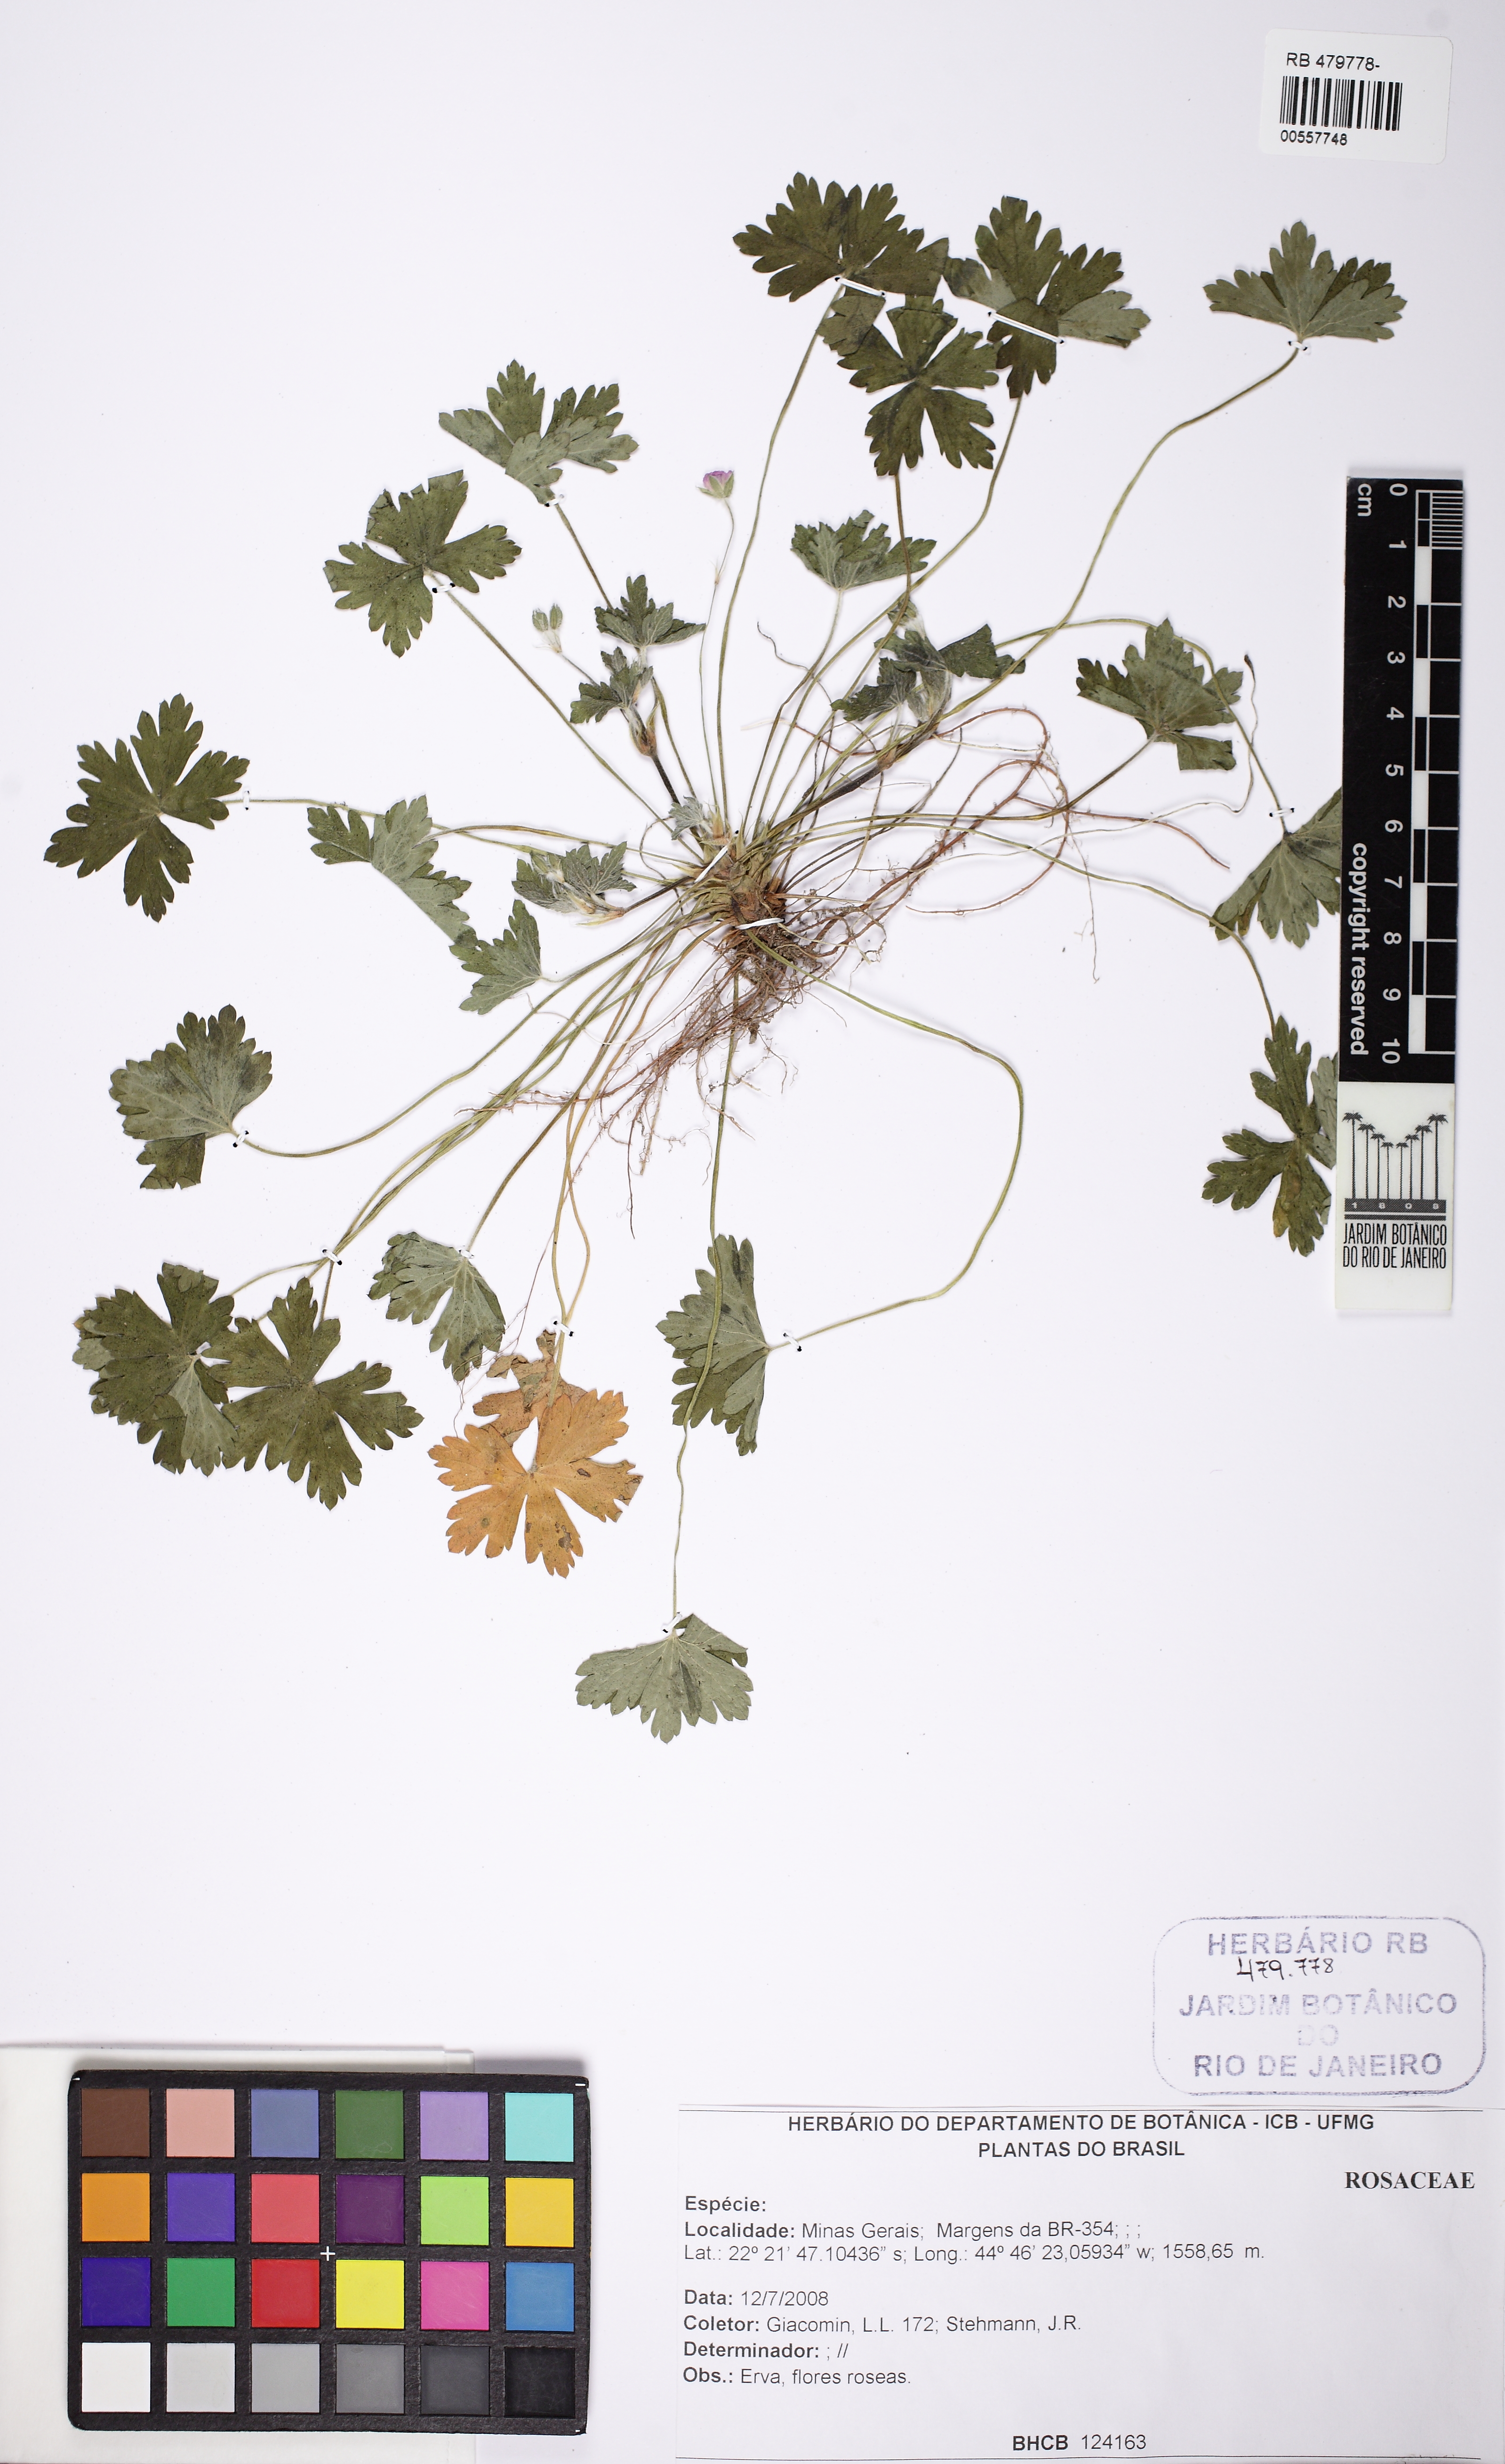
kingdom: Plantae
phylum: Tracheophyta
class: Magnoliopsida
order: Rosales
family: Rosaceae
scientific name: Rosaceae
